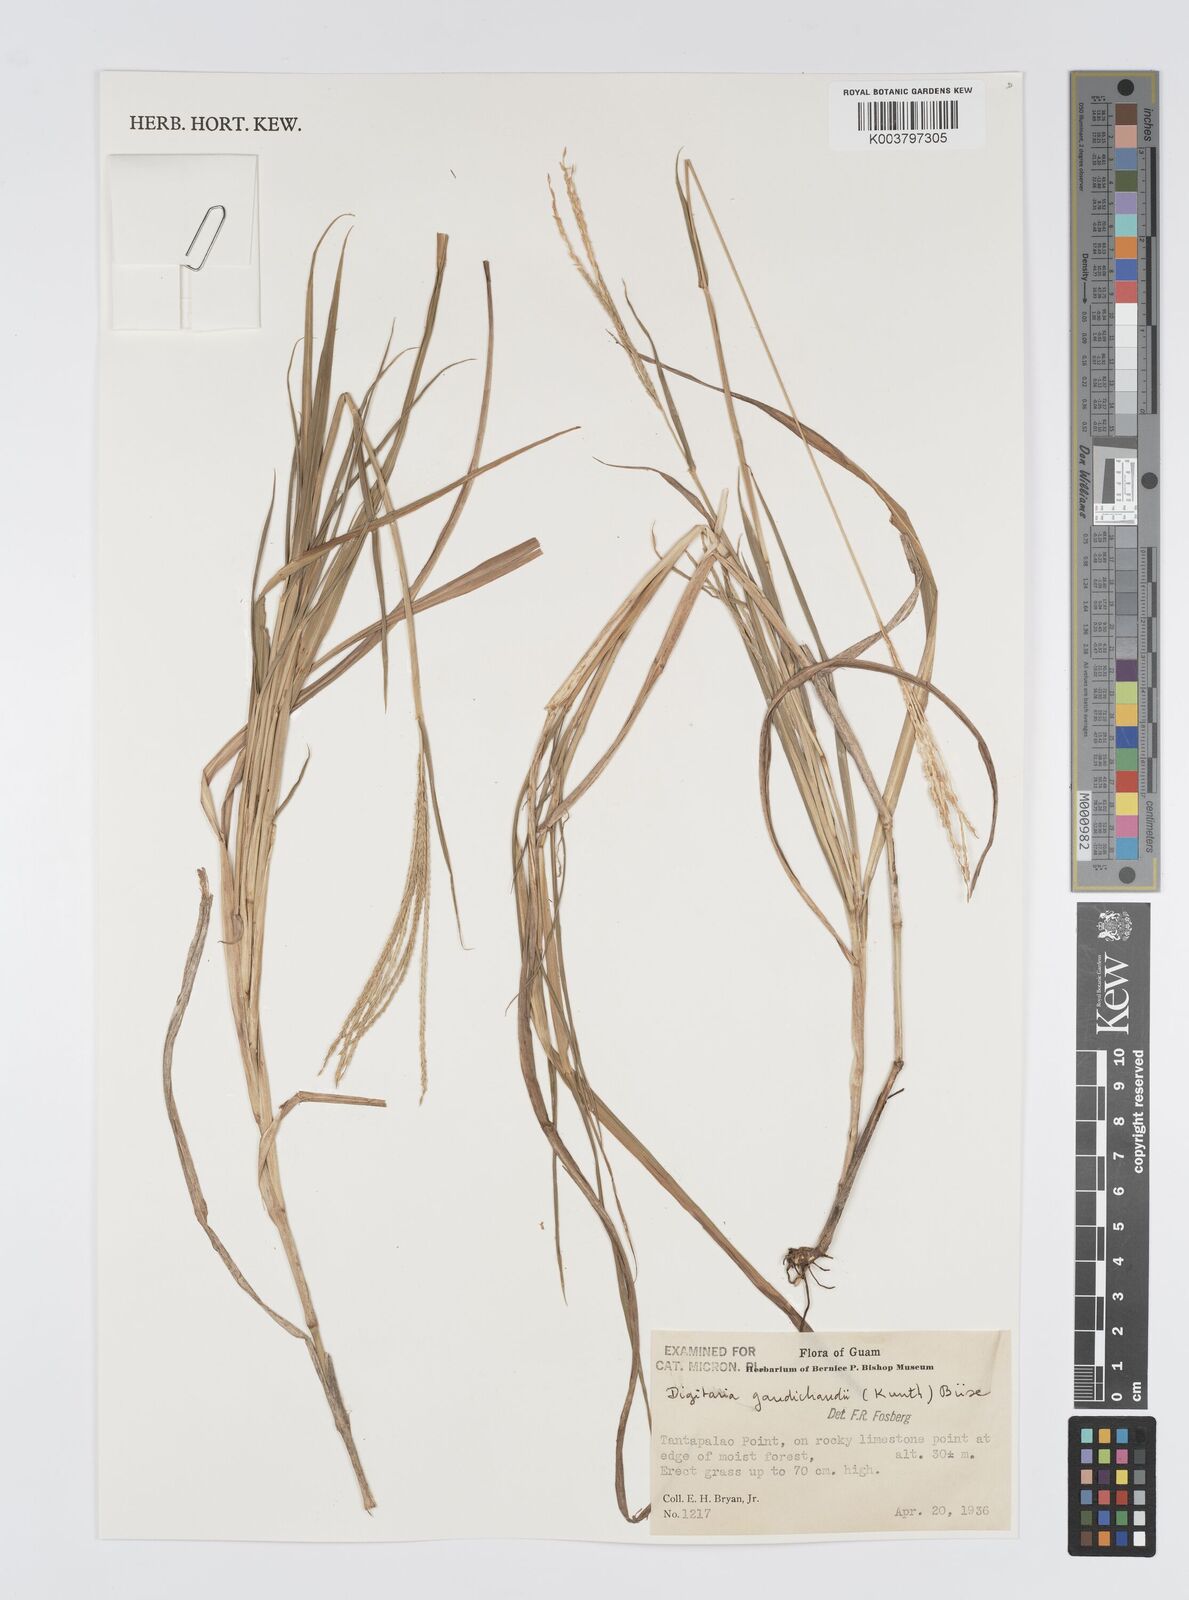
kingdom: Plantae
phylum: Tracheophyta
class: Liliopsida
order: Poales
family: Poaceae
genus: Digitaria
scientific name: Digitaria gaudichaudii
